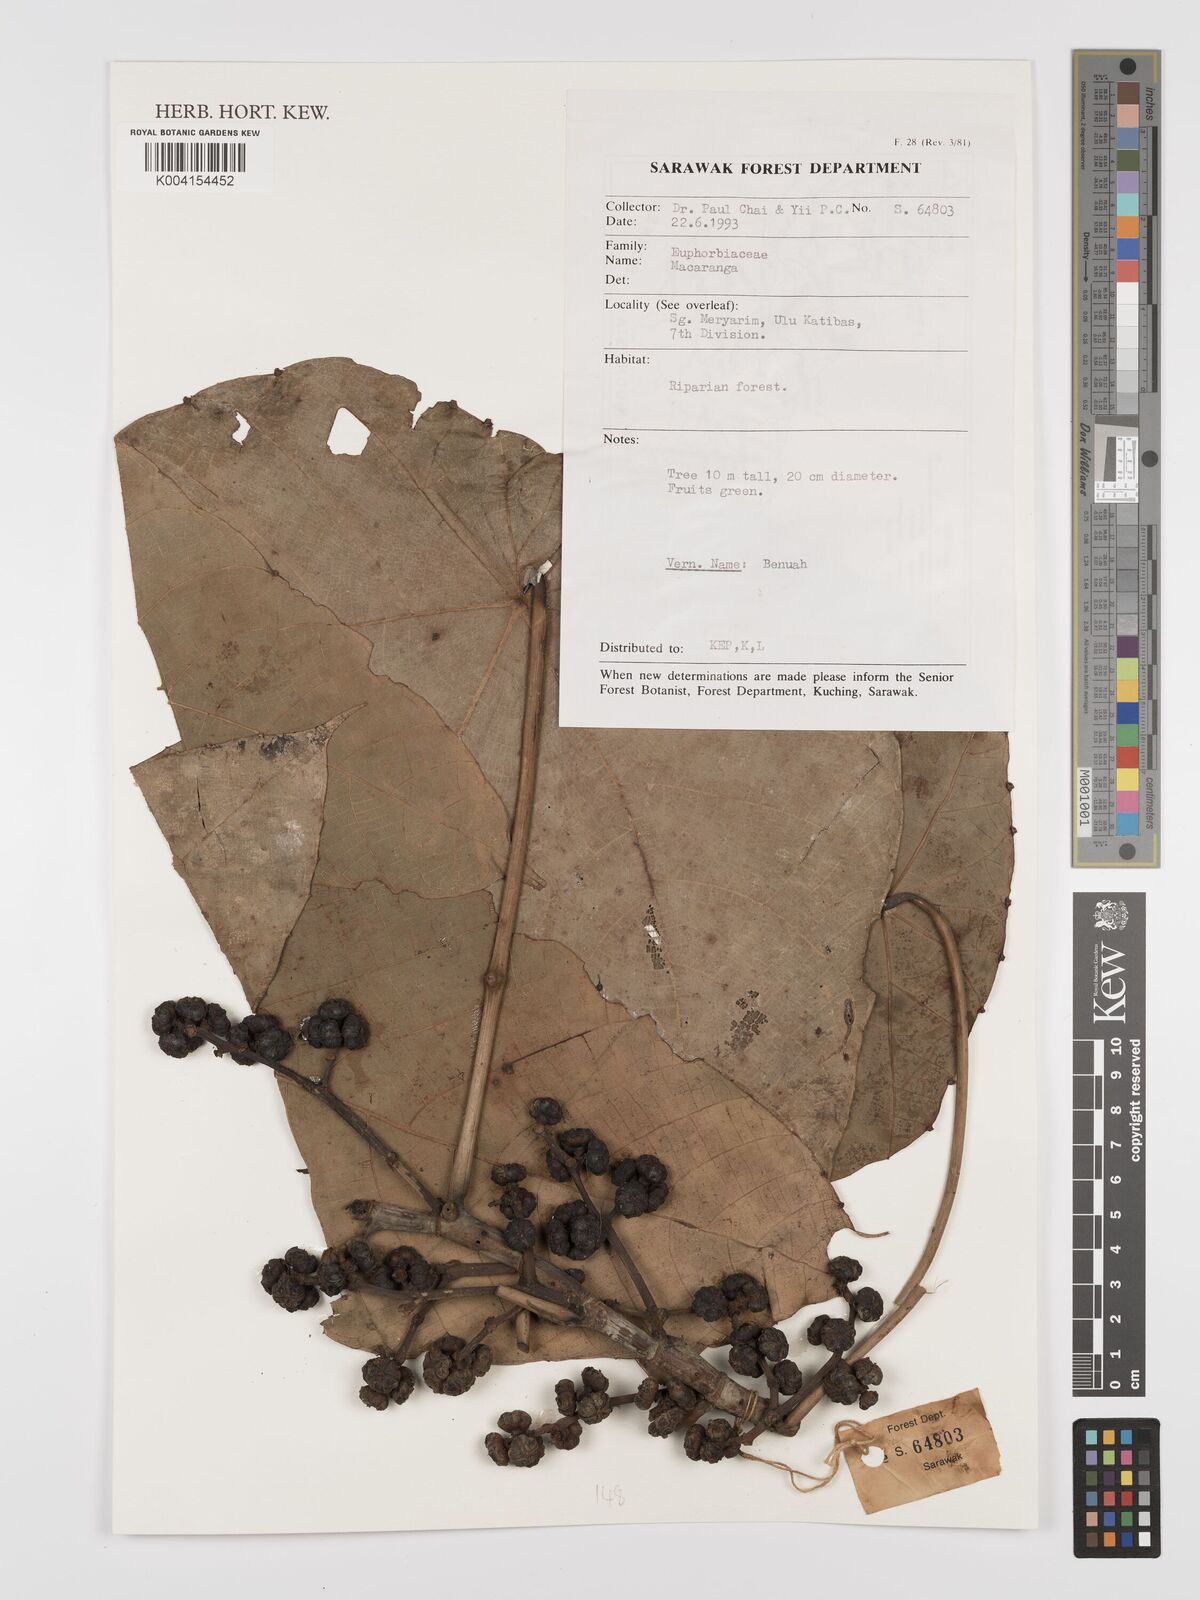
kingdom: Plantae
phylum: Tracheophyta
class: Magnoliopsida
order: Malpighiales
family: Euphorbiaceae
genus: Macaranga
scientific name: Macaranga
